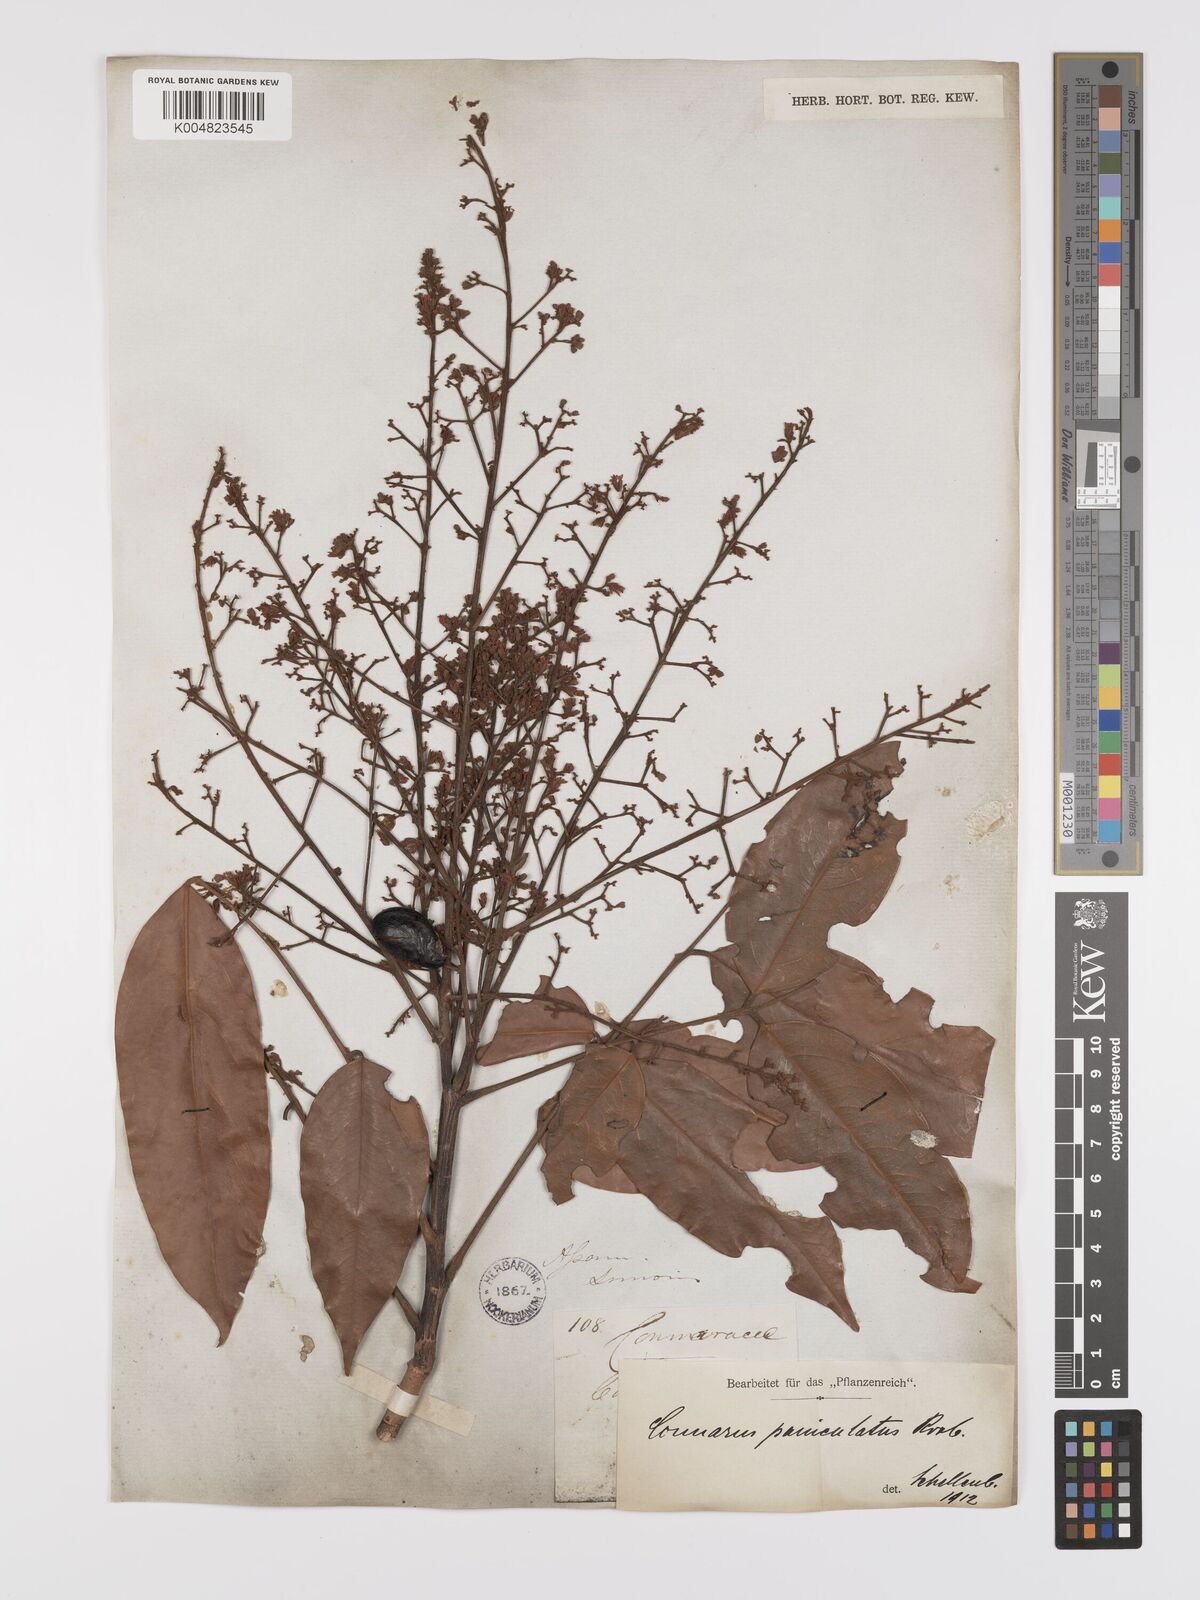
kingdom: Plantae
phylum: Tracheophyta
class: Magnoliopsida
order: Oxalidales
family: Connaraceae
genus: Connarus
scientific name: Connarus paniculatus
